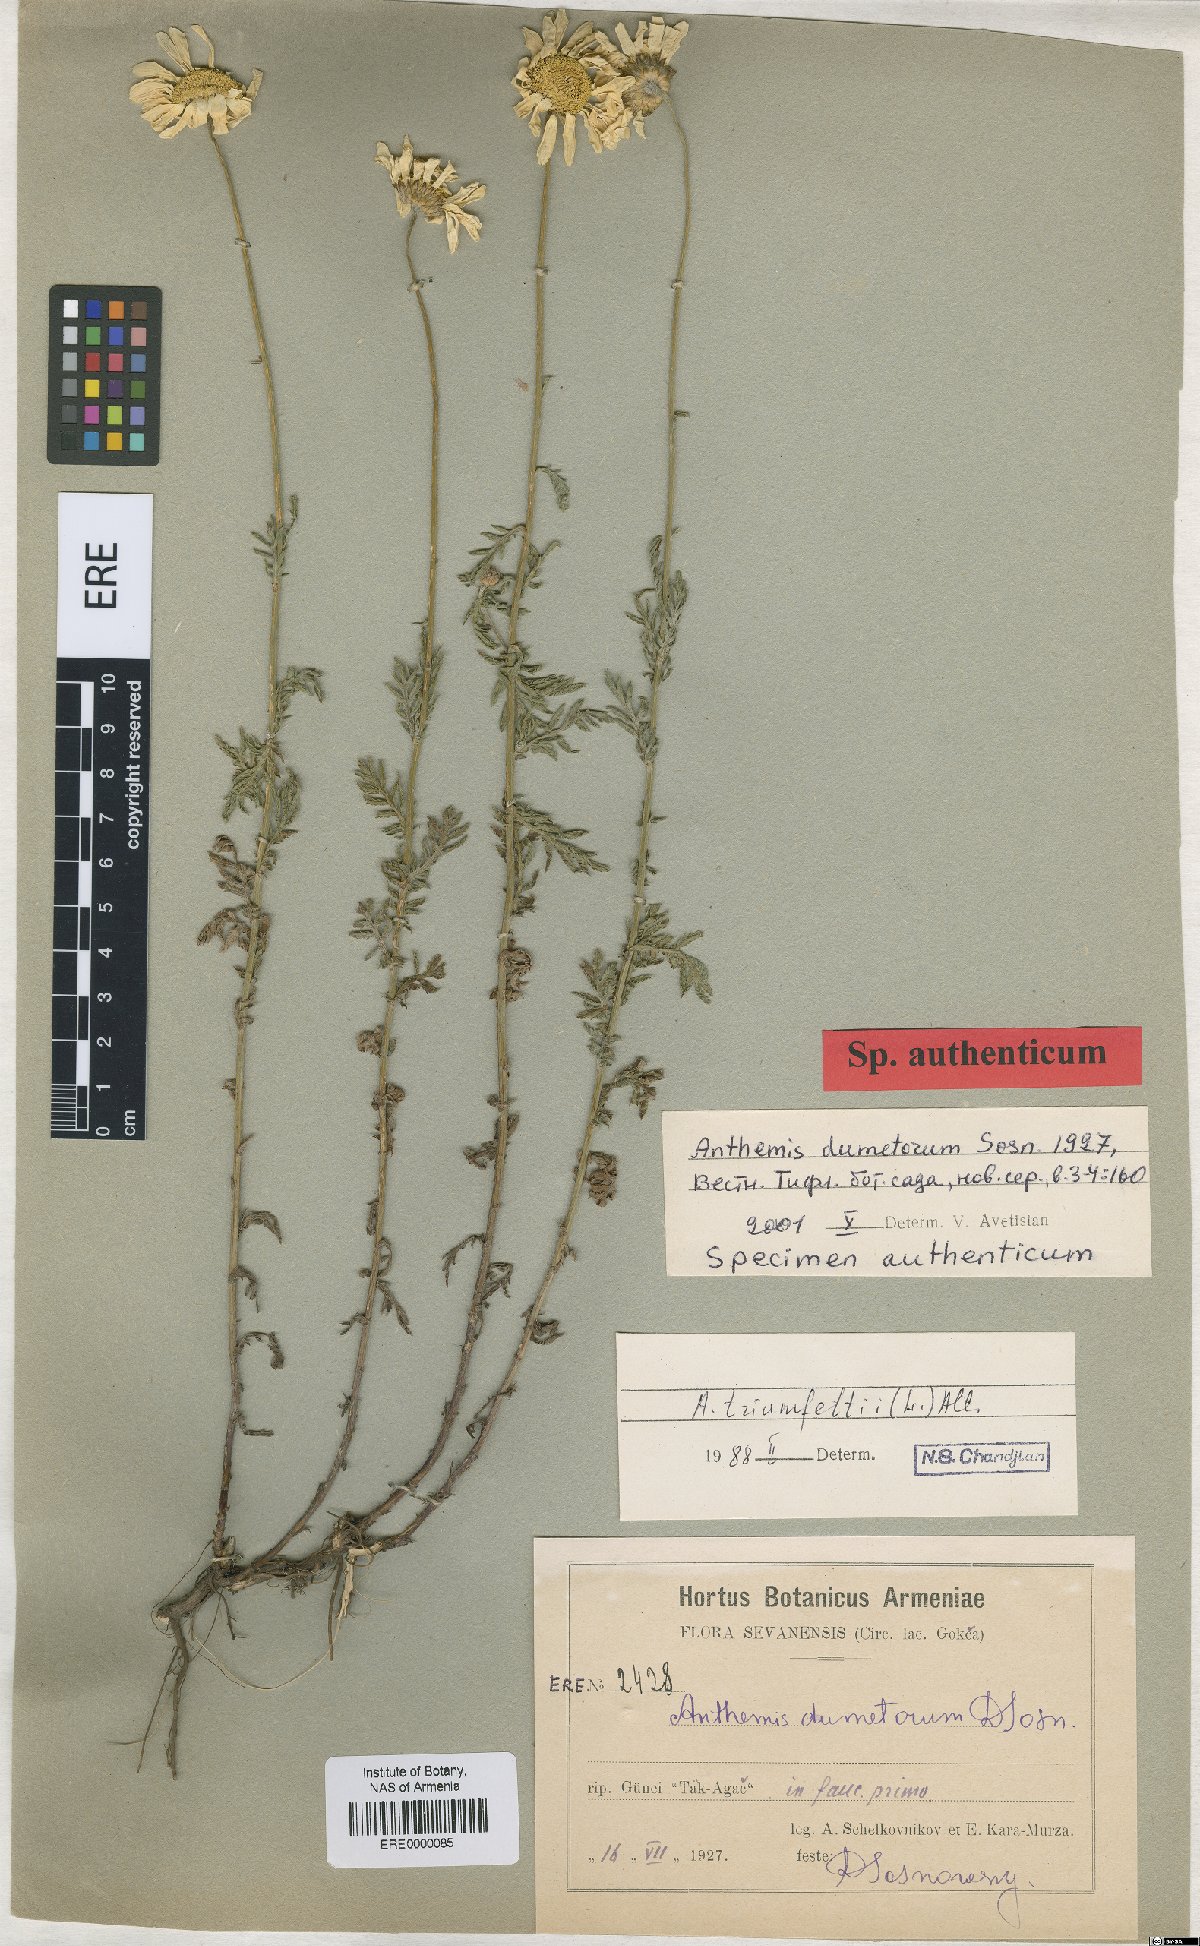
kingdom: Plantae
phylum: Tracheophyta
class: Magnoliopsida
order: Asterales
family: Asteraceae
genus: Cota
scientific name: Cota triumfetti
